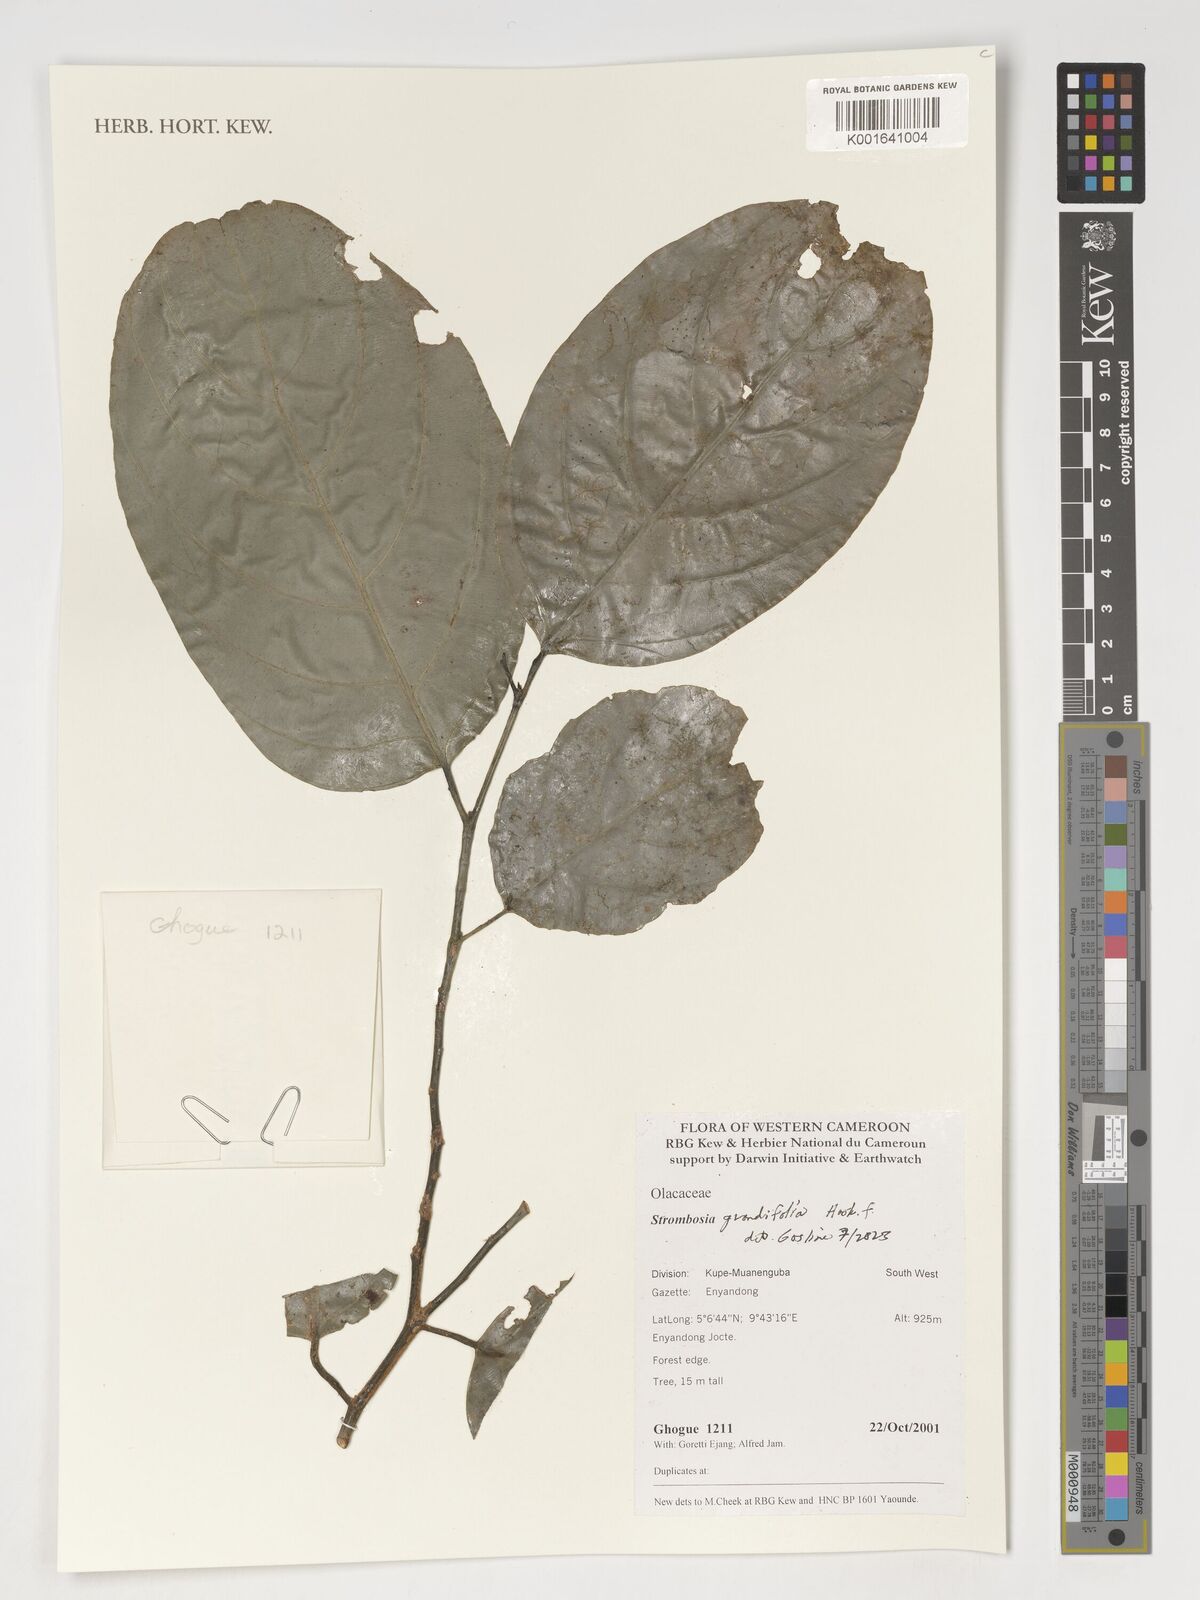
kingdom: Plantae
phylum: Tracheophyta
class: Magnoliopsida
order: Santalales
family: Strombosiaceae
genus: Strombosia
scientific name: Strombosia grandifolia
